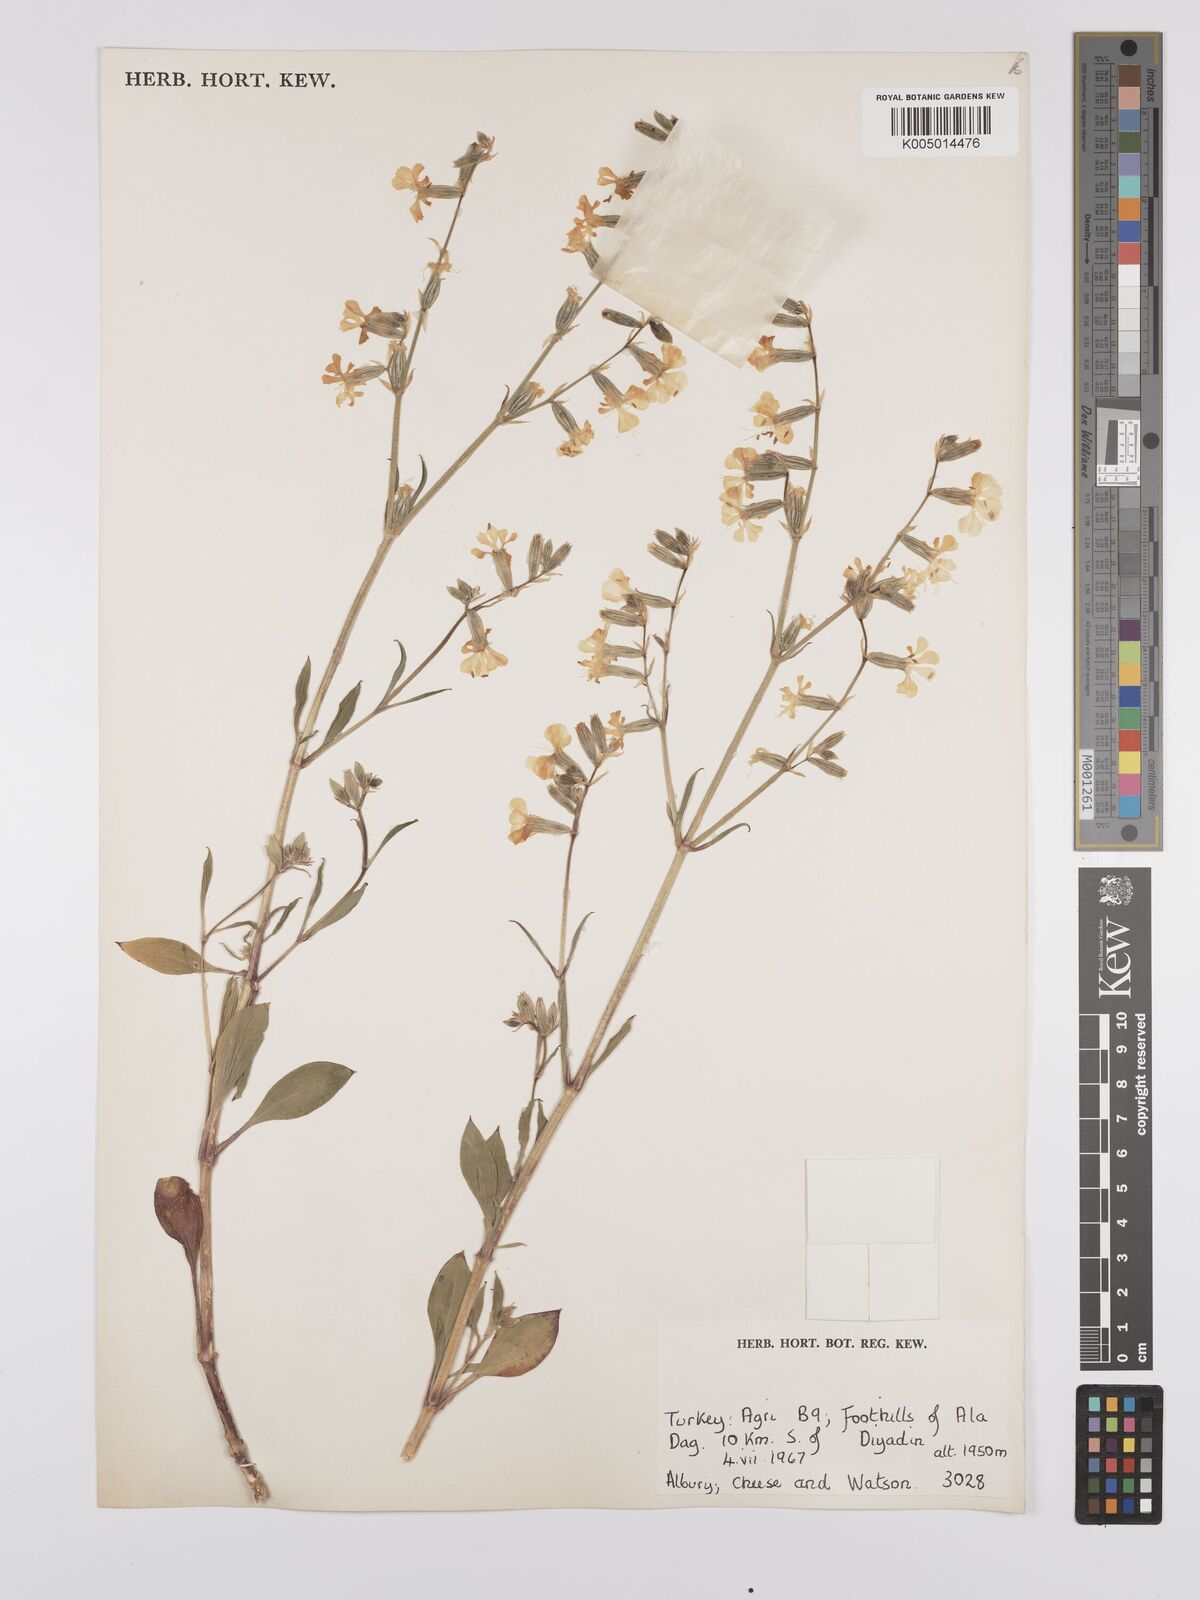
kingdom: Plantae
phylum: Tracheophyta
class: Magnoliopsida
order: Caryophyllales
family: Caryophyllaceae
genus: Silene
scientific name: Silene
